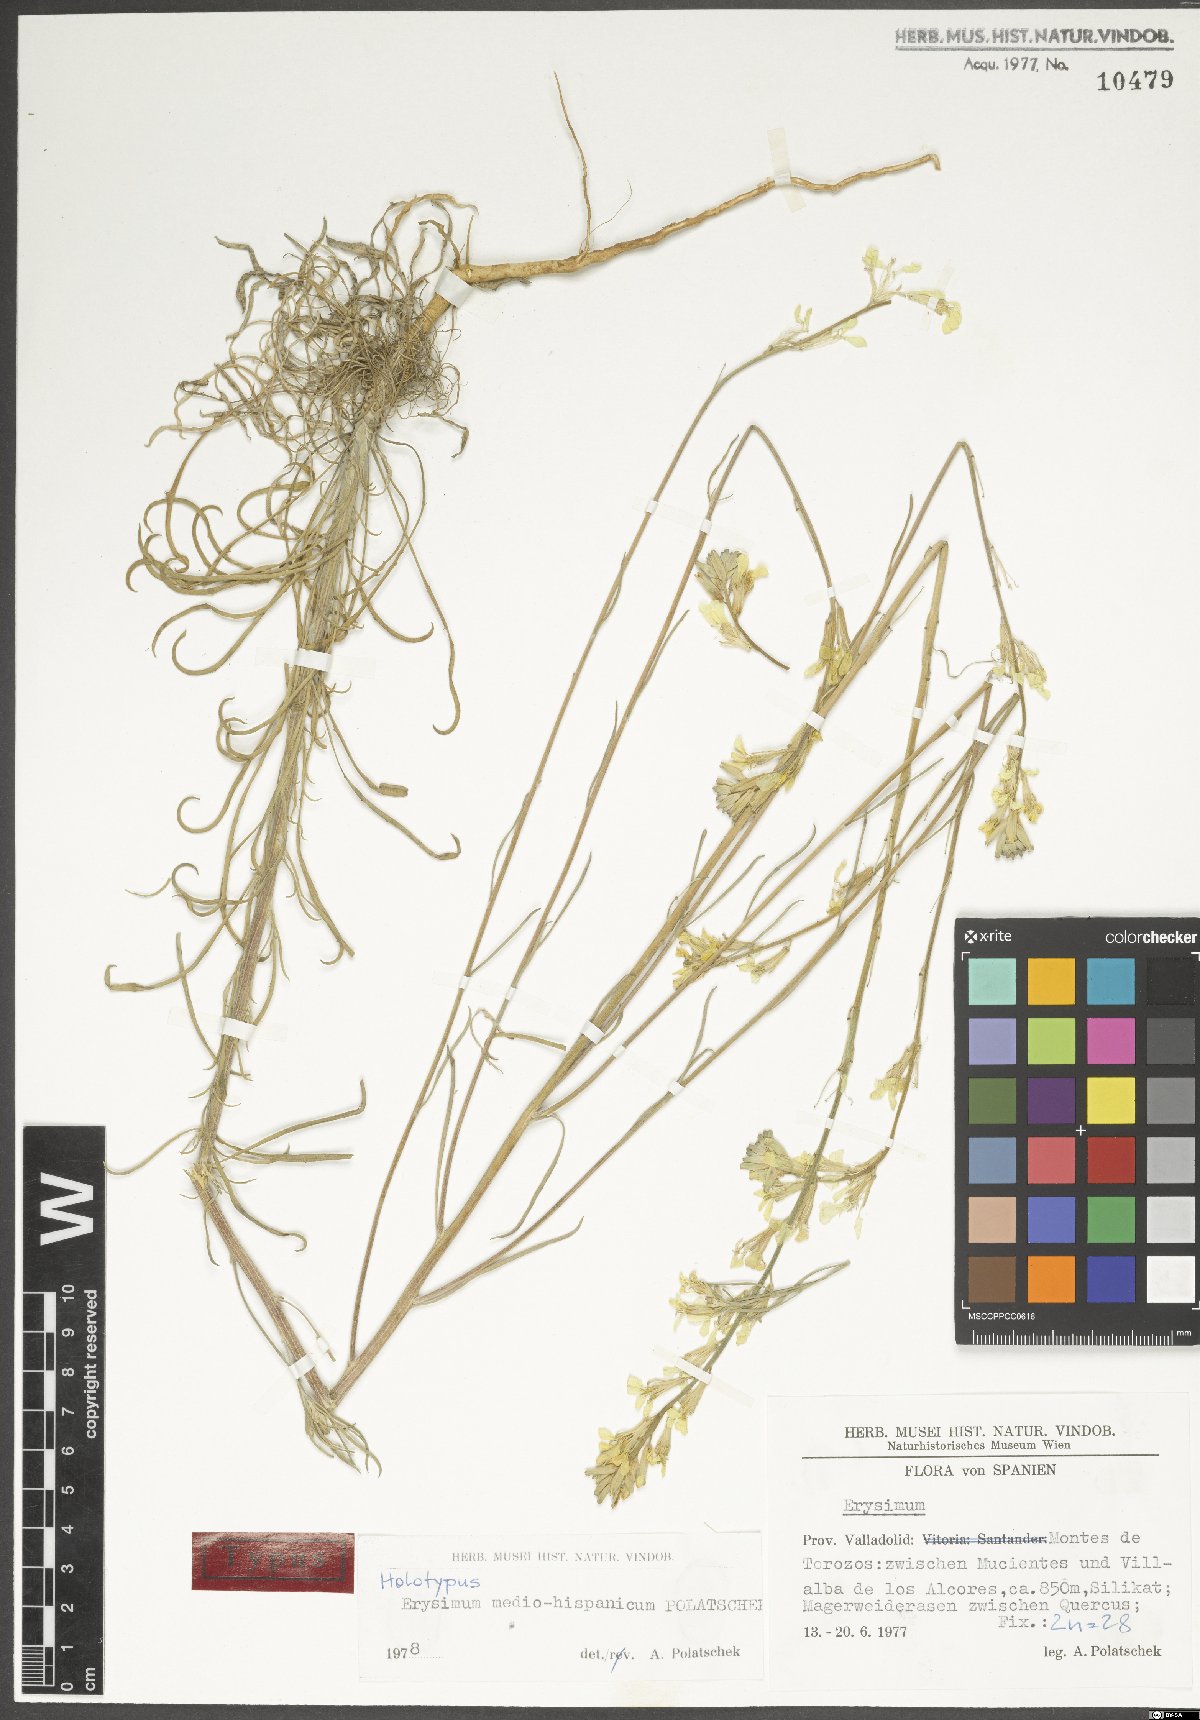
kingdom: Plantae
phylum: Tracheophyta
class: Magnoliopsida
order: Brassicales
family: Brassicaceae
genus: Erysimum
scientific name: Erysimum nevadense
